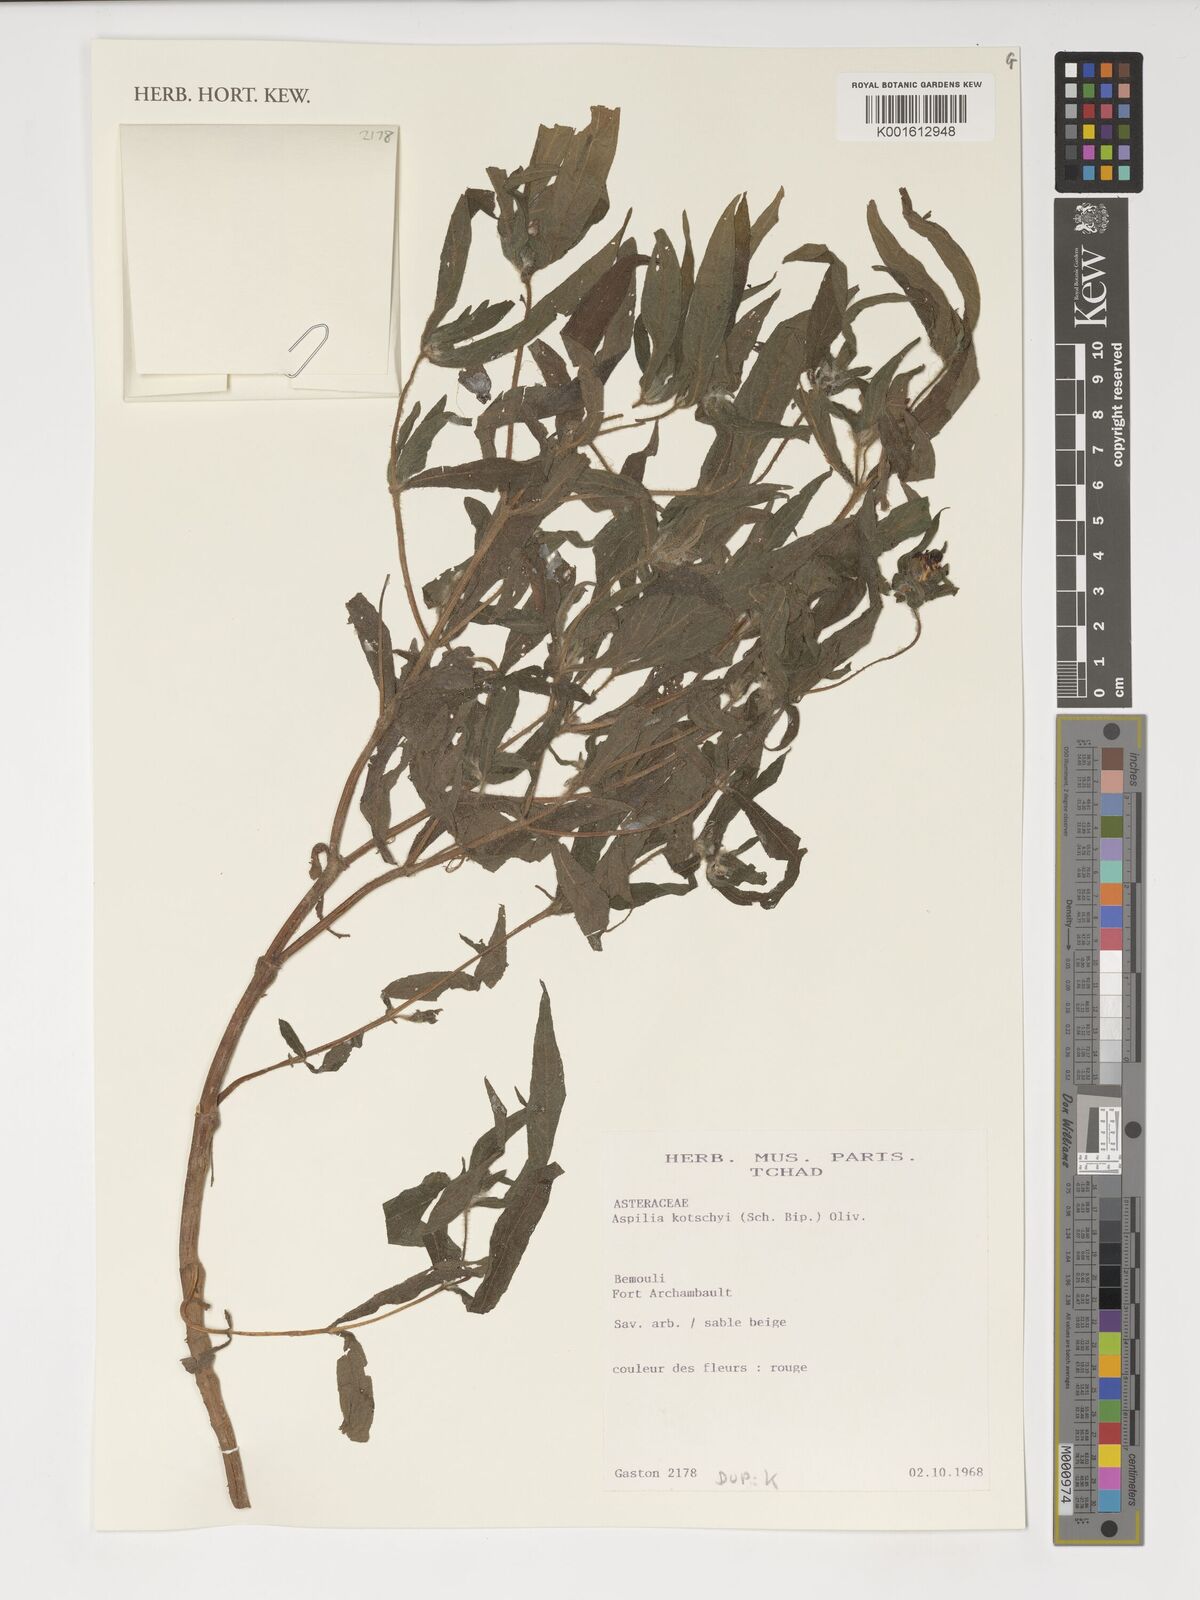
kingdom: Plantae
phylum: Tracheophyta
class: Magnoliopsida
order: Asterales
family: Asteraceae
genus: Aspilia
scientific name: Aspilia kotschyi
